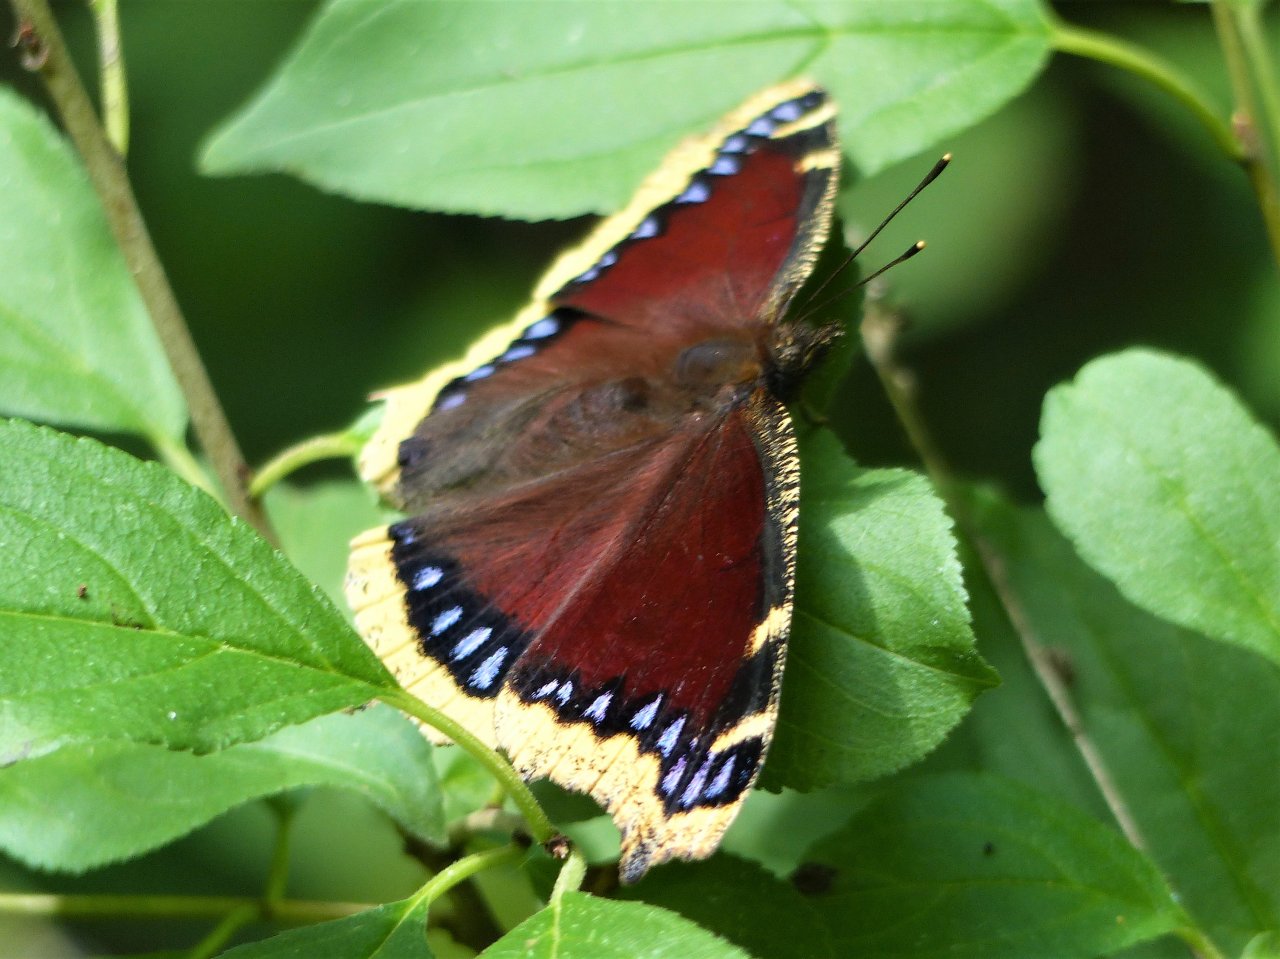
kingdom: Animalia
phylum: Arthropoda
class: Insecta
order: Lepidoptera
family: Nymphalidae
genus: Nymphalis
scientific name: Nymphalis antiopa
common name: Mourning Cloak
